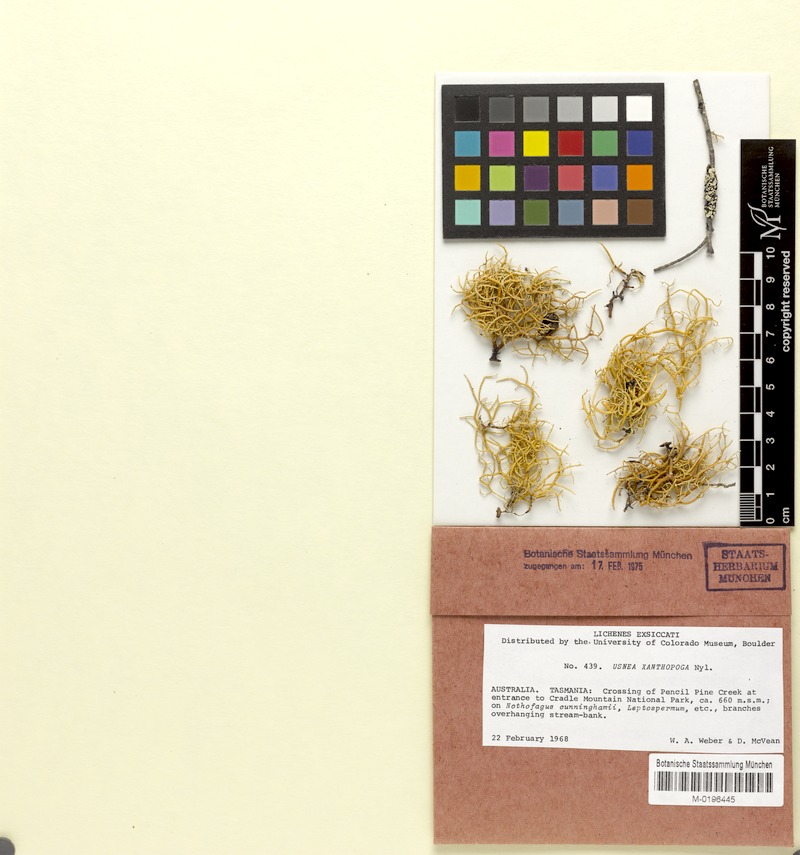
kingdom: Fungi
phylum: Ascomycota
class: Lecanoromycetes
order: Lecanorales
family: Parmeliaceae
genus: Usnea
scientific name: Usnea xanthopoga
